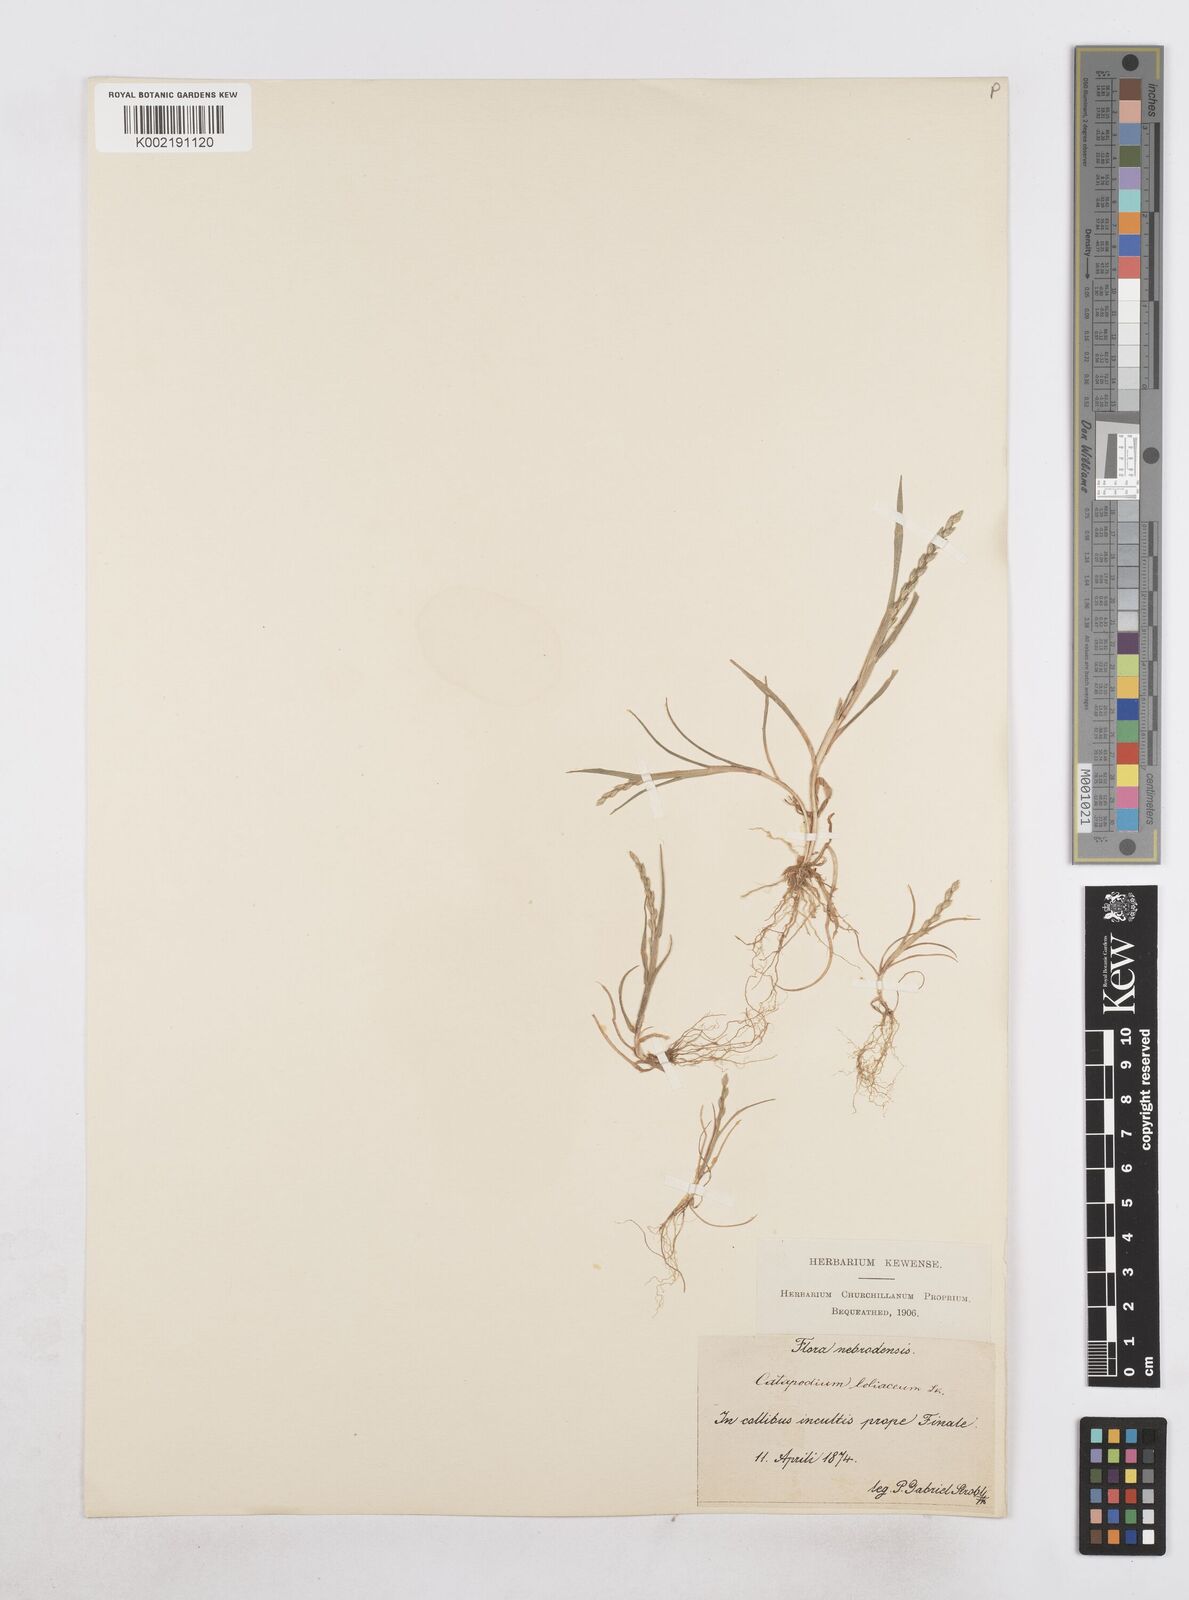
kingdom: Plantae
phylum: Tracheophyta
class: Liliopsida
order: Poales
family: Poaceae
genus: Catapodium
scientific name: Catapodium marinum
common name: Sea fern-grass
